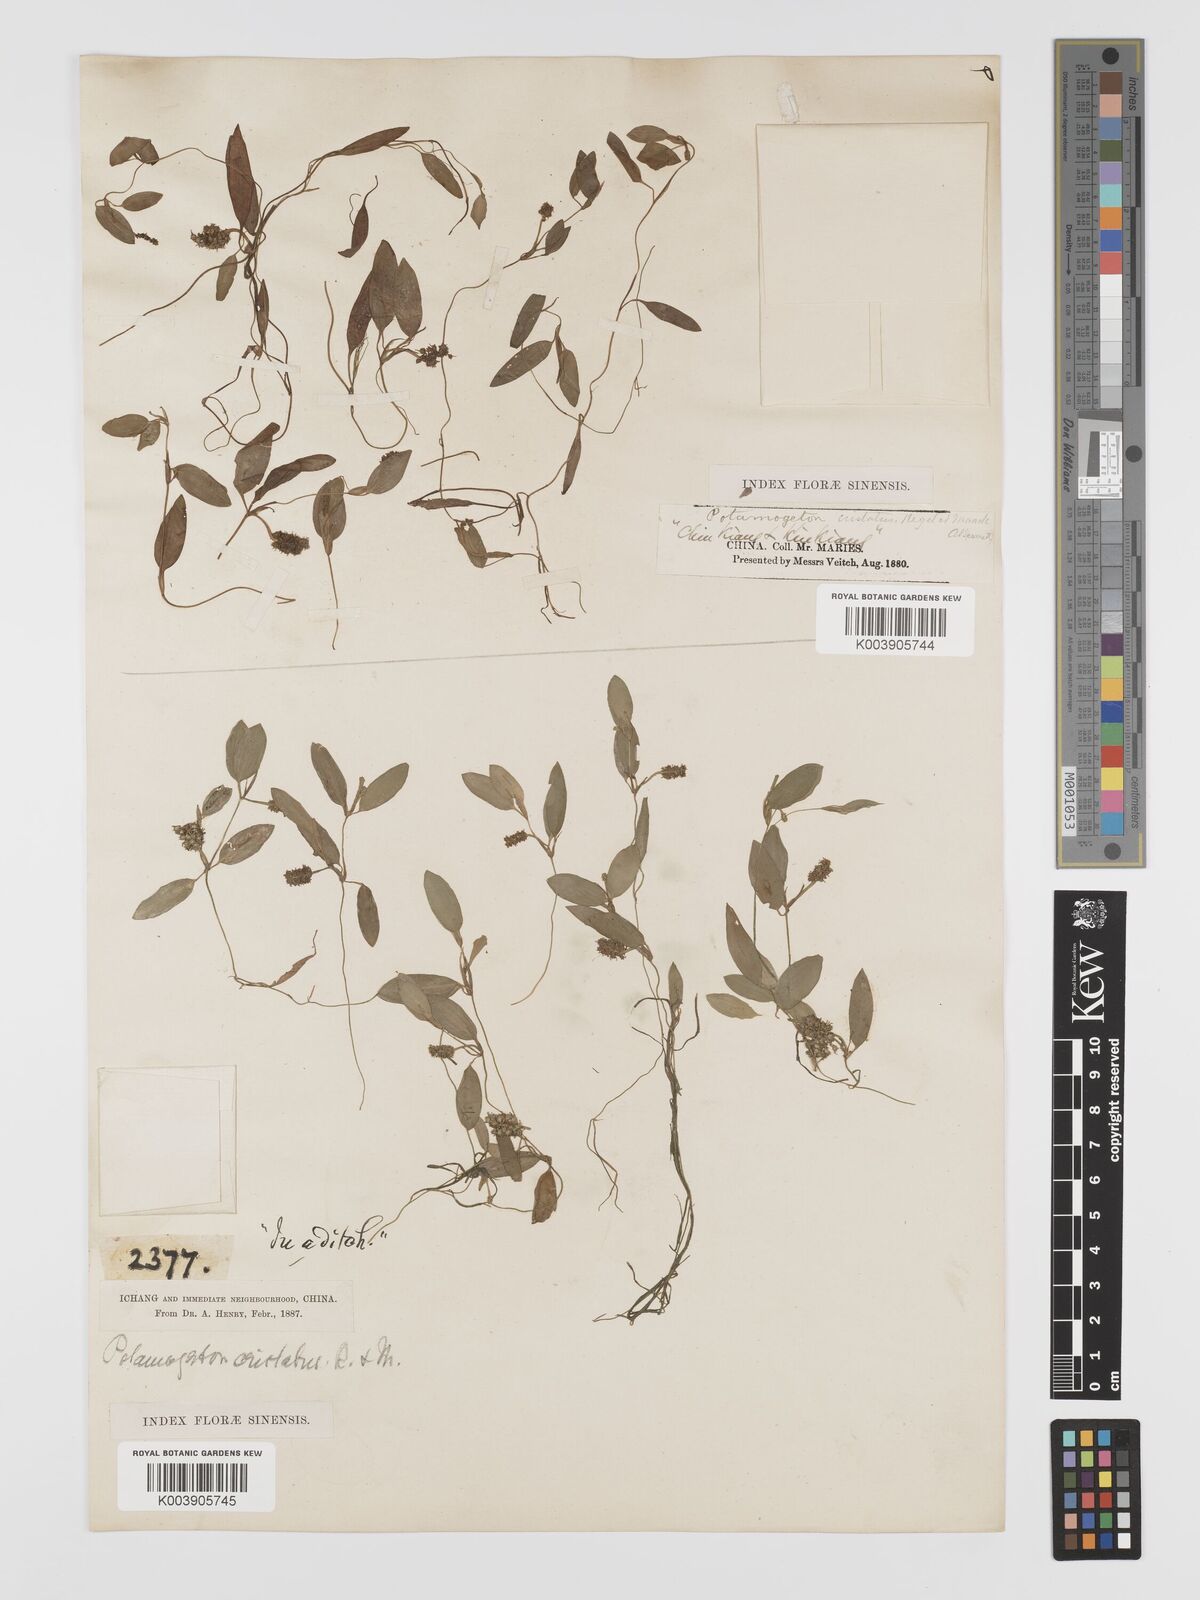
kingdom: Plantae
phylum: Tracheophyta
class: Liliopsida
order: Alismatales
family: Potamogetonaceae
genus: Potamogeton
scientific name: Potamogeton cristatus
